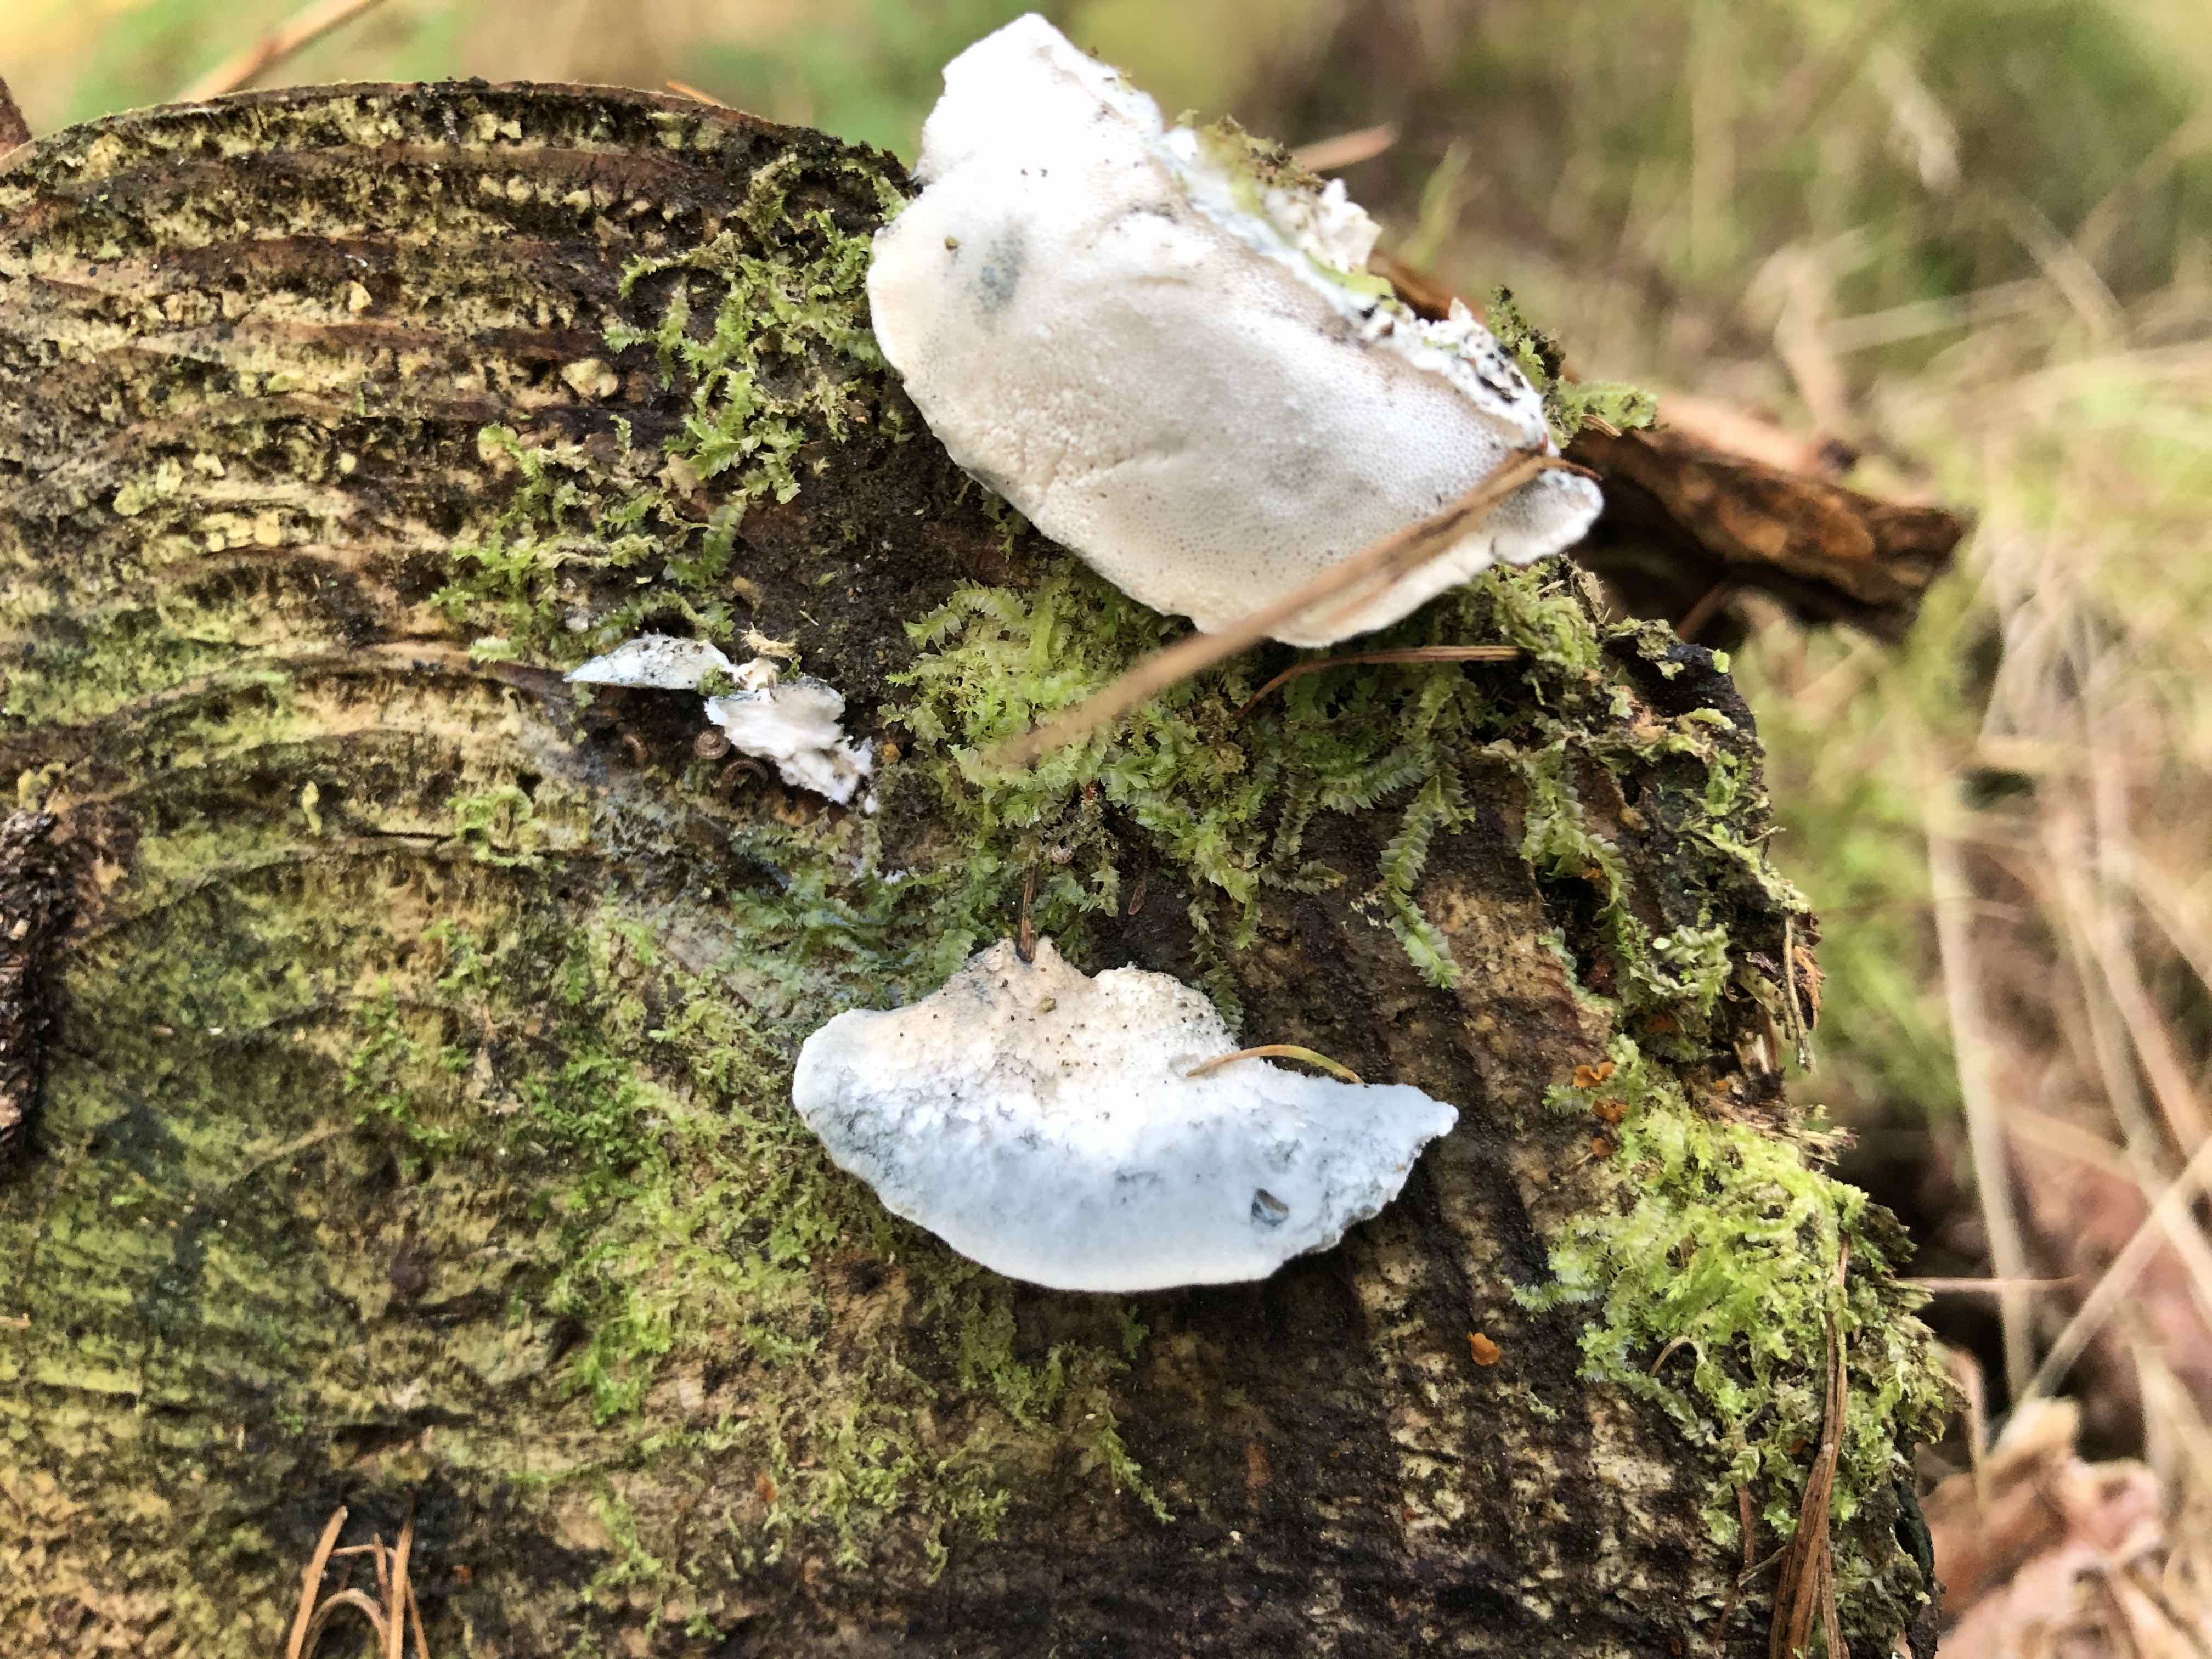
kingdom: Fungi
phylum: Basidiomycota
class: Agaricomycetes
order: Polyporales
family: Polyporaceae
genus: Cyanosporus
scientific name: Cyanosporus caesius
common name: blålig kødporesvamp
